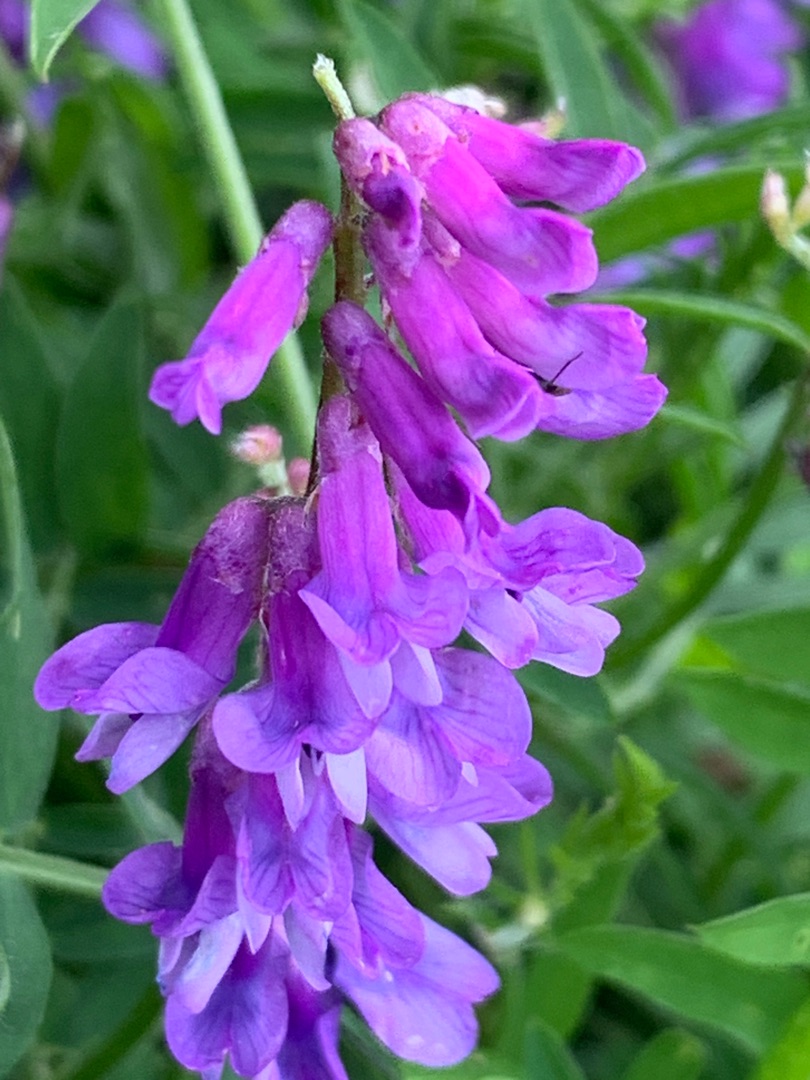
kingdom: Plantae
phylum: Tracheophyta
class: Magnoliopsida
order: Fabales
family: Fabaceae
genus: Vicia
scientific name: Vicia cracca
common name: Muse-vikke
